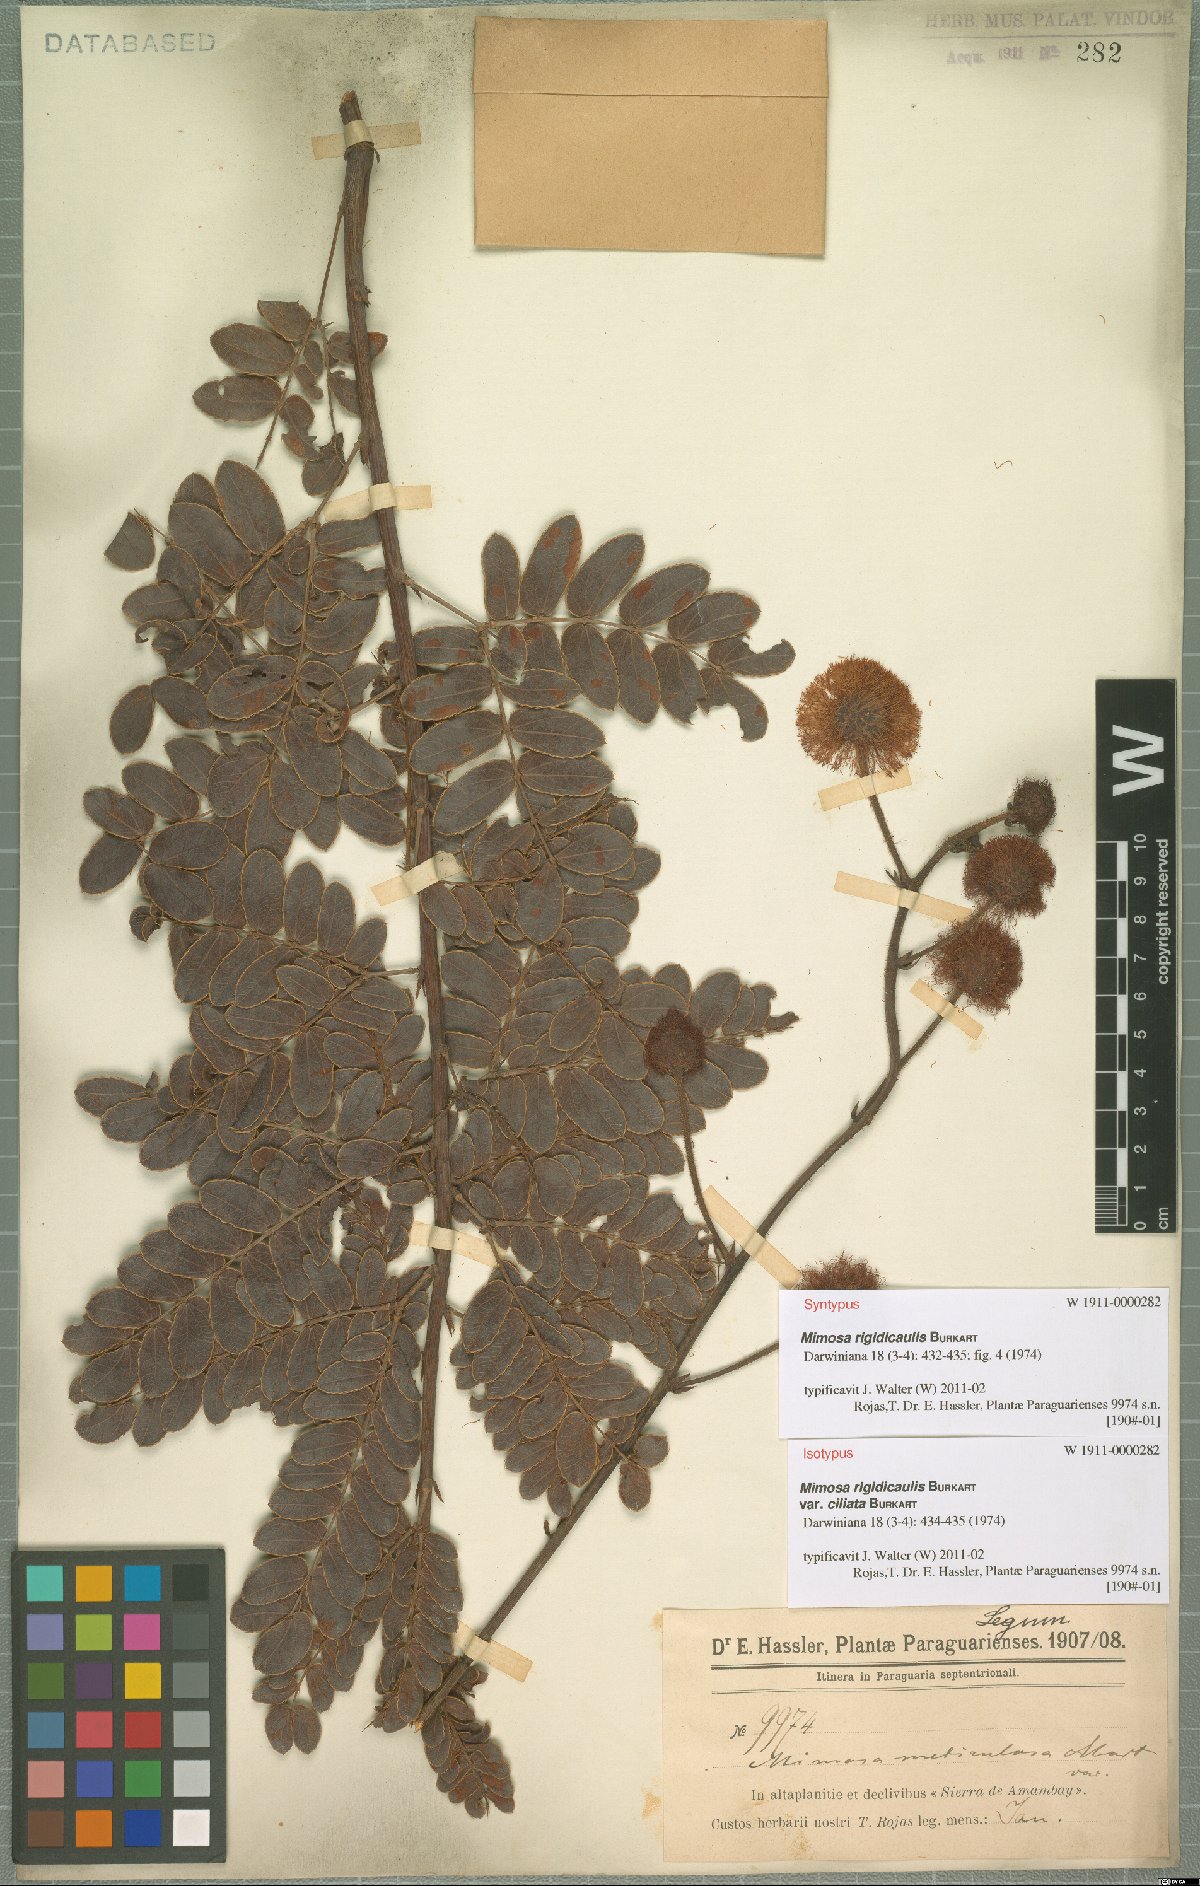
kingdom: Plantae
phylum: Tracheophyta
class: Magnoliopsida
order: Fabales
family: Fabaceae
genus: Mimosa
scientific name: Mimosa dolens
